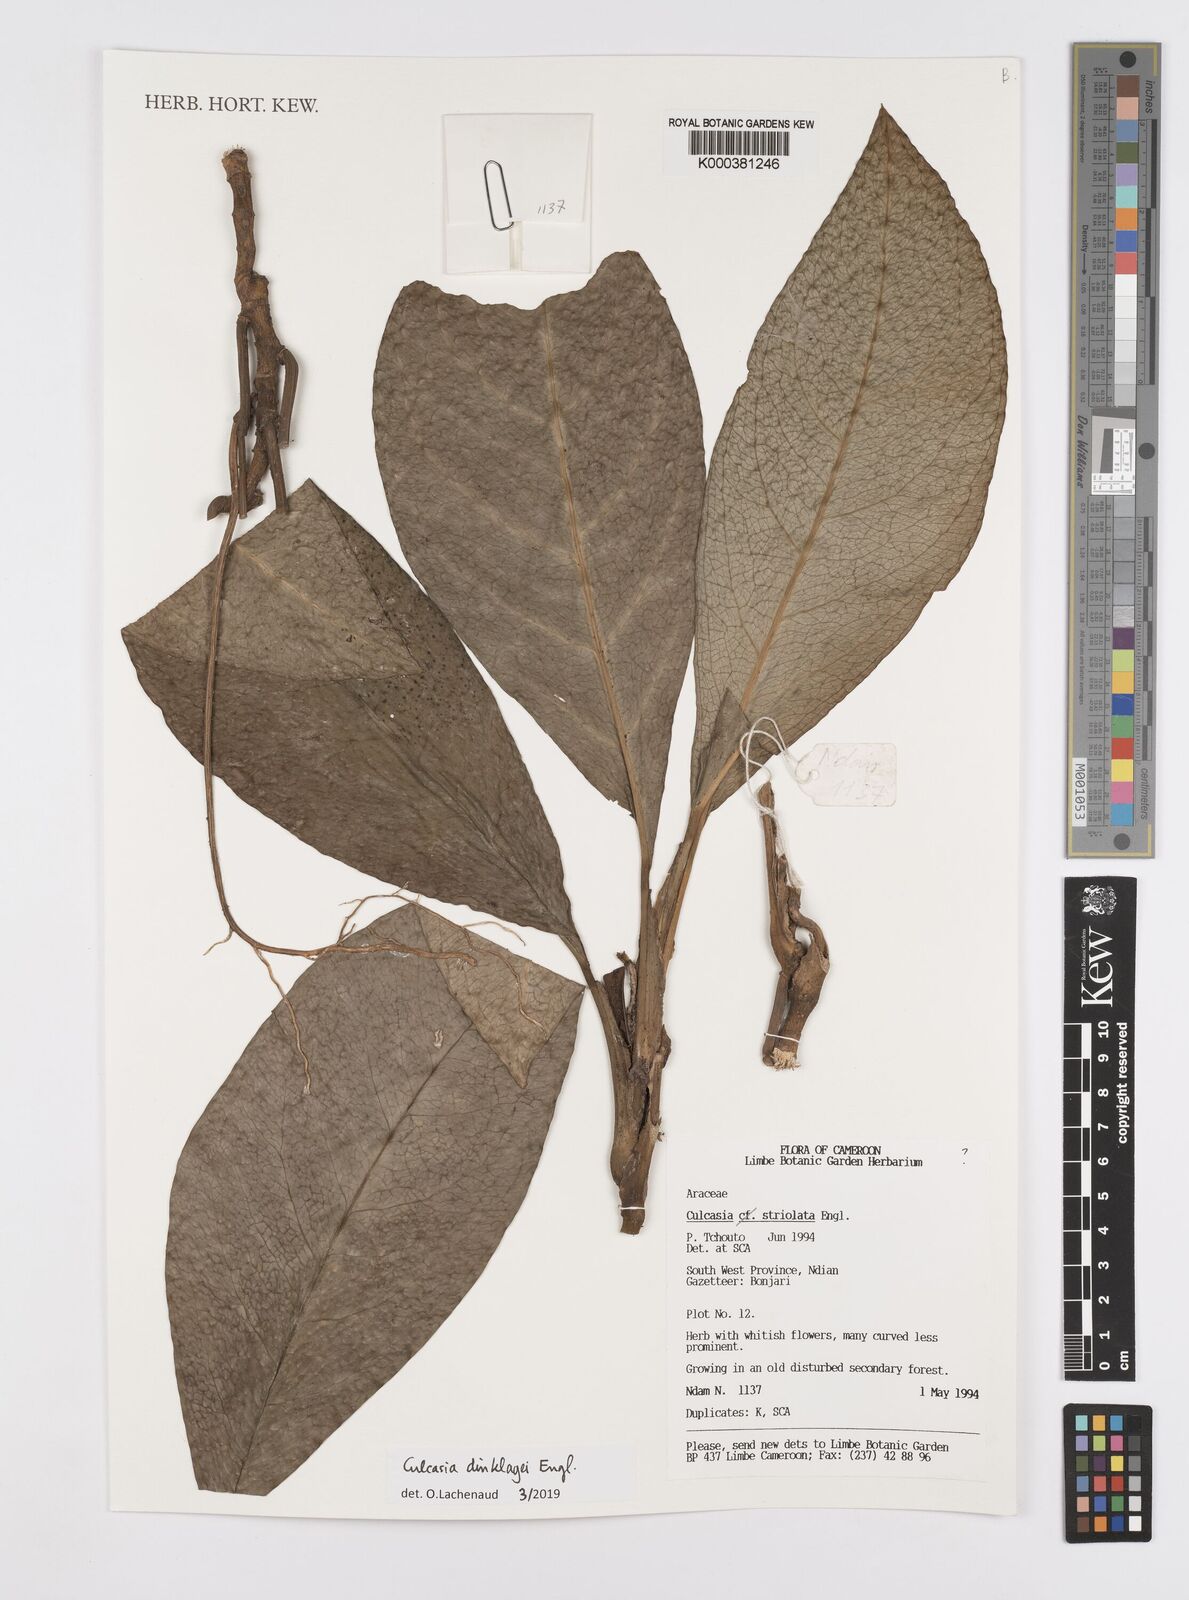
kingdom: Plantae
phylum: Tracheophyta
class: Liliopsida
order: Alismatales
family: Araceae
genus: Culcasia
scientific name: Culcasia dinklagei
